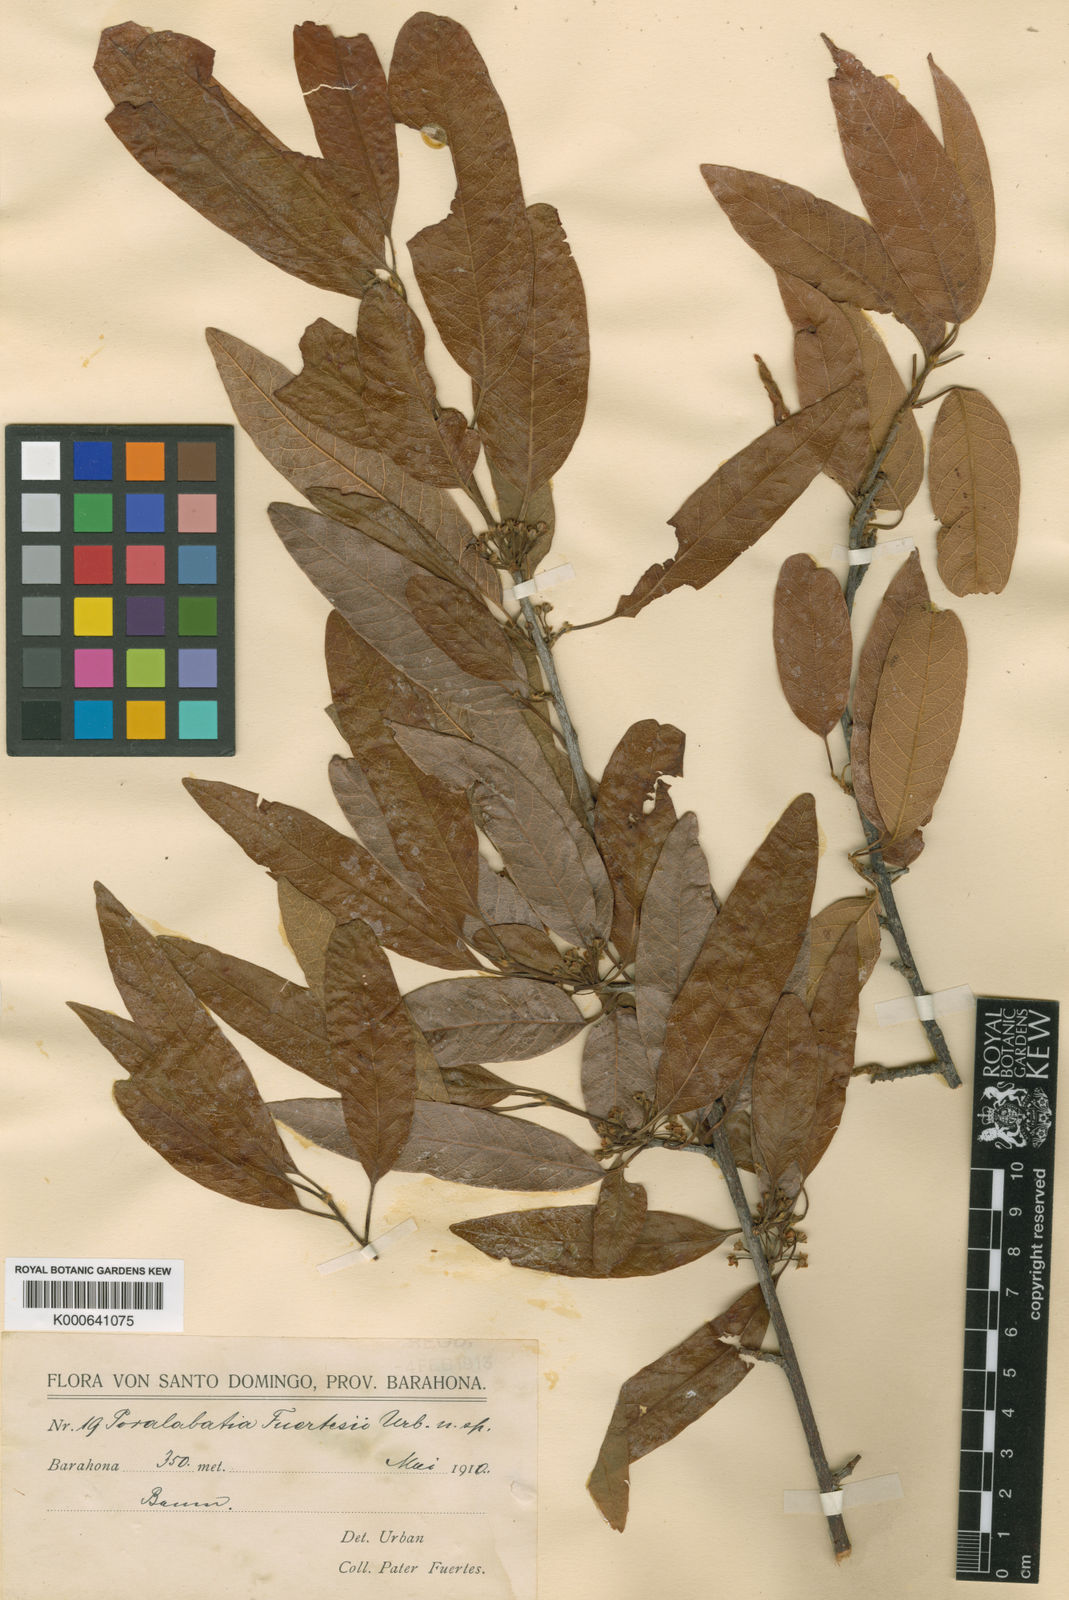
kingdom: Plantae
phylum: Tracheophyta
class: Magnoliopsida
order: Ericales
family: Sapotaceae
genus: Pouteria
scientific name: Pouteria
